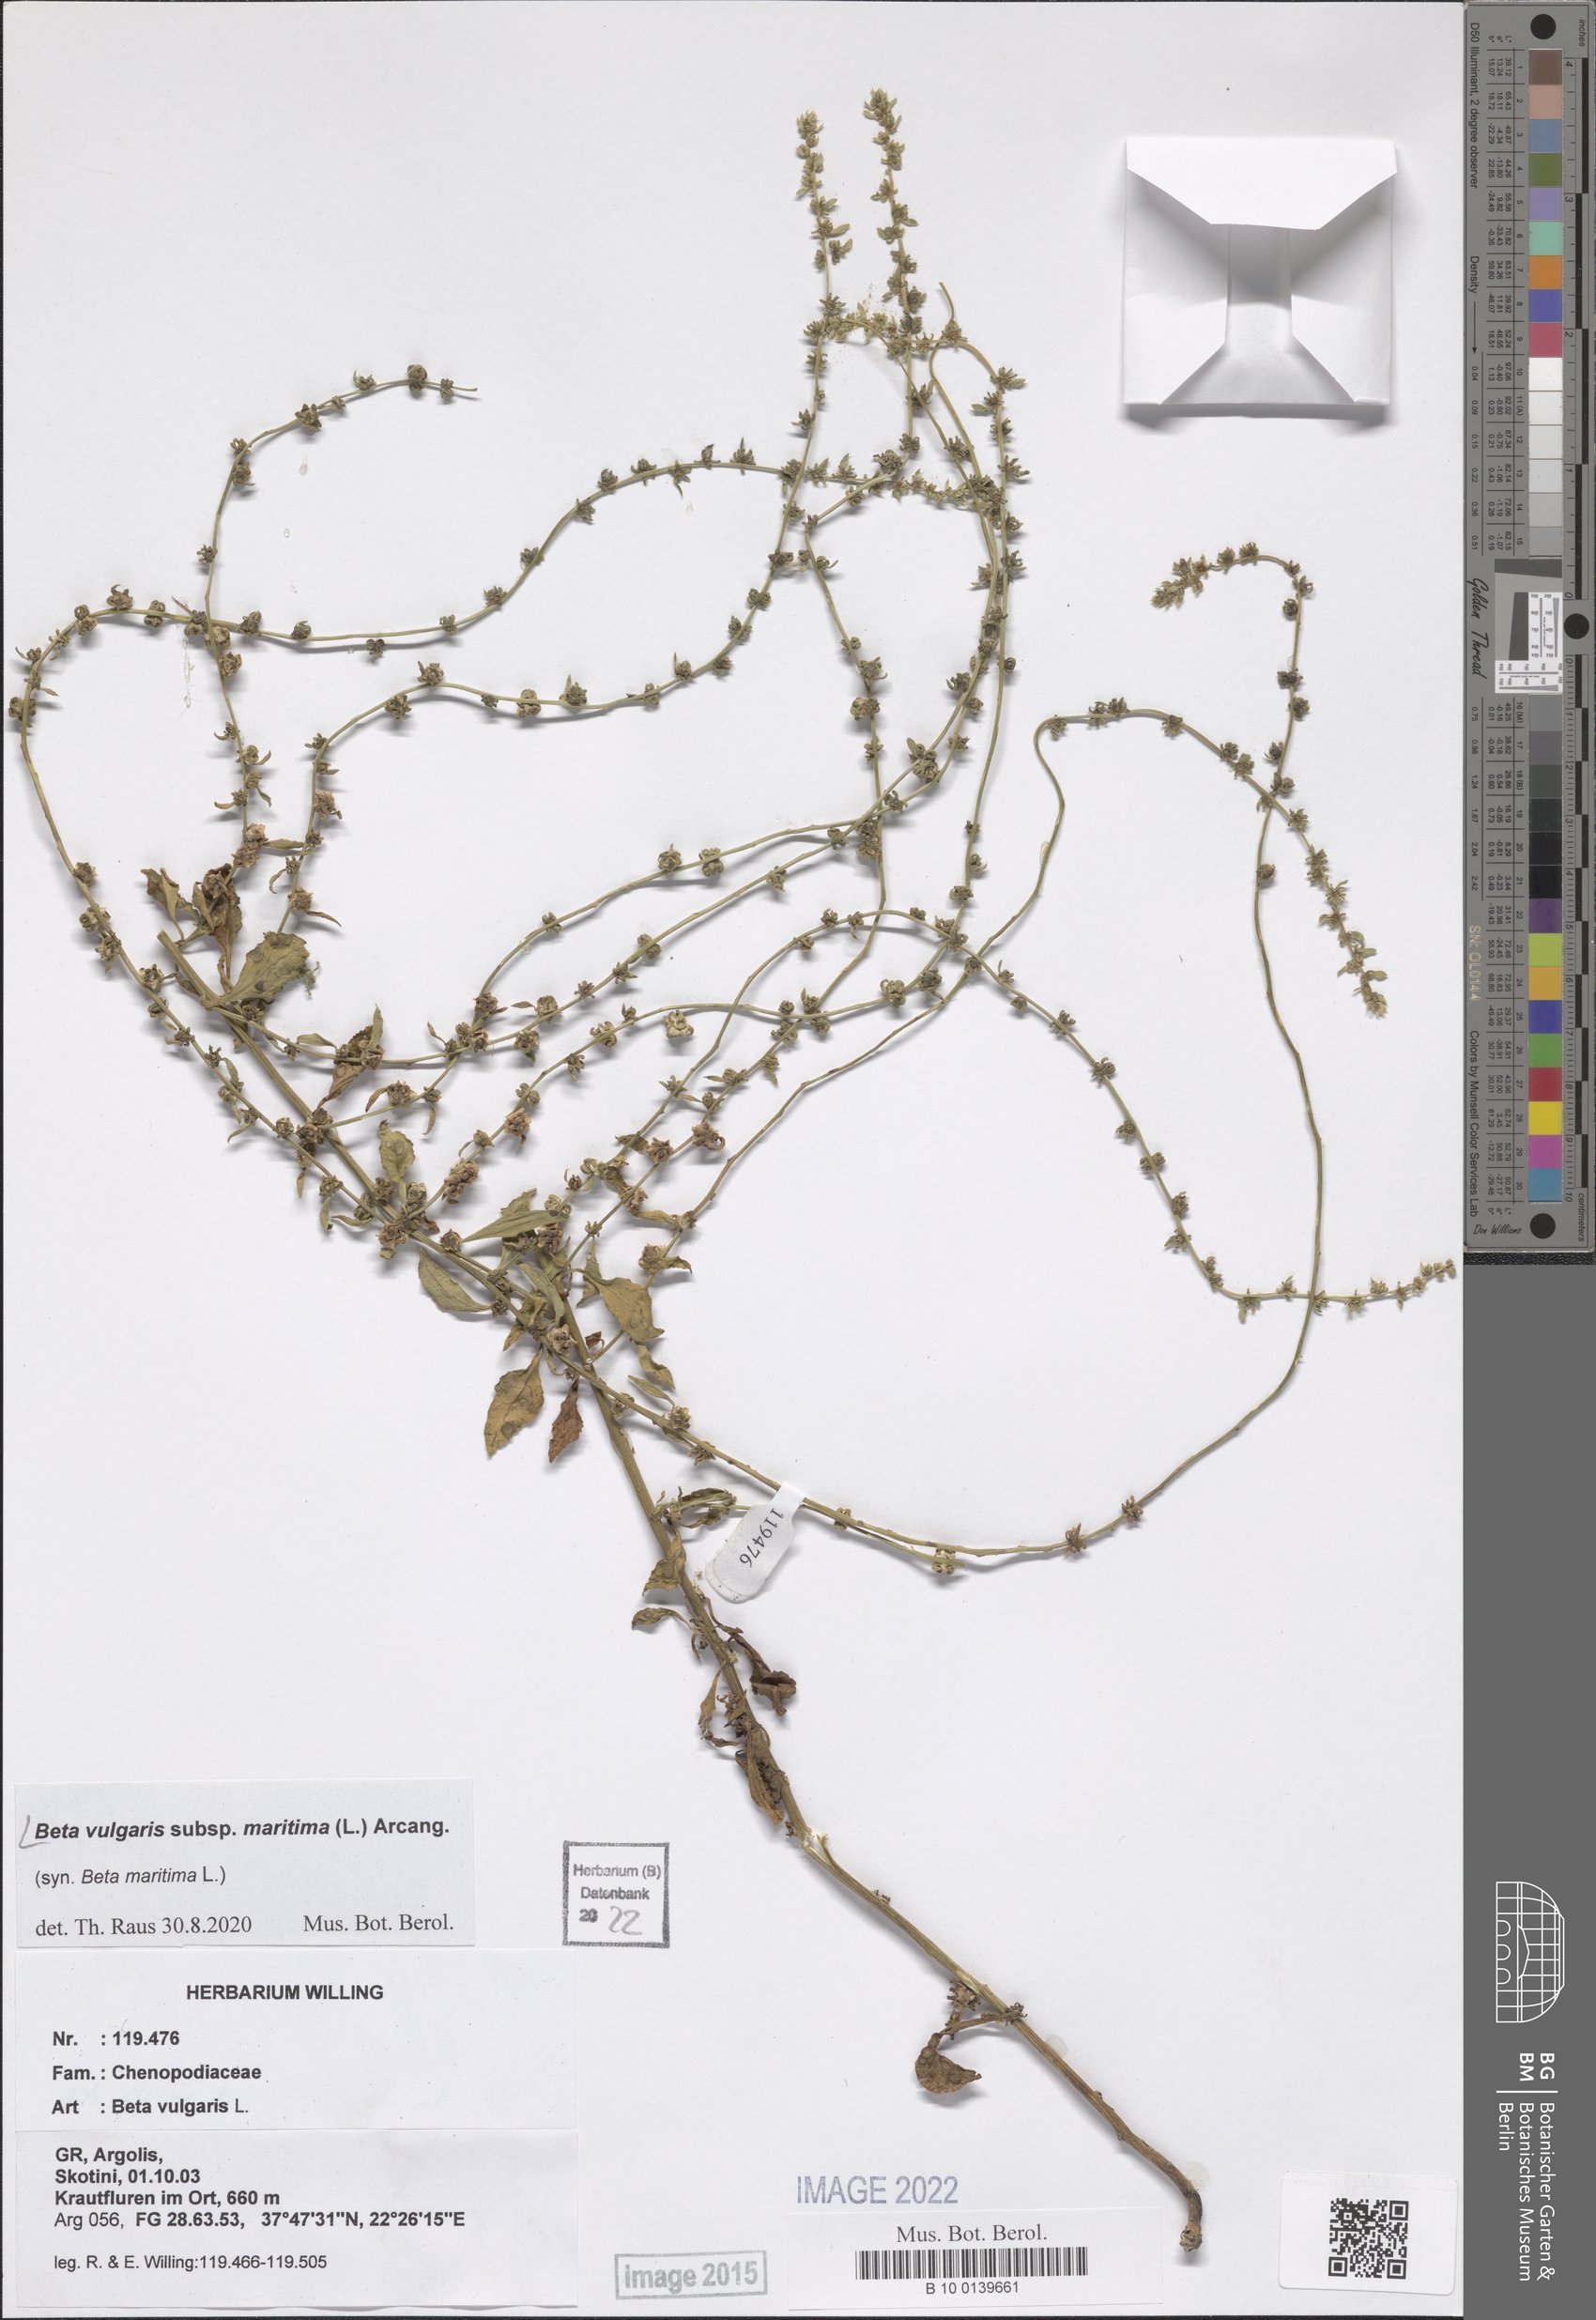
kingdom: Plantae
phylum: Tracheophyta
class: Magnoliopsida
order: Caryophyllales
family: Amaranthaceae
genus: Beta
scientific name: Beta maritima
